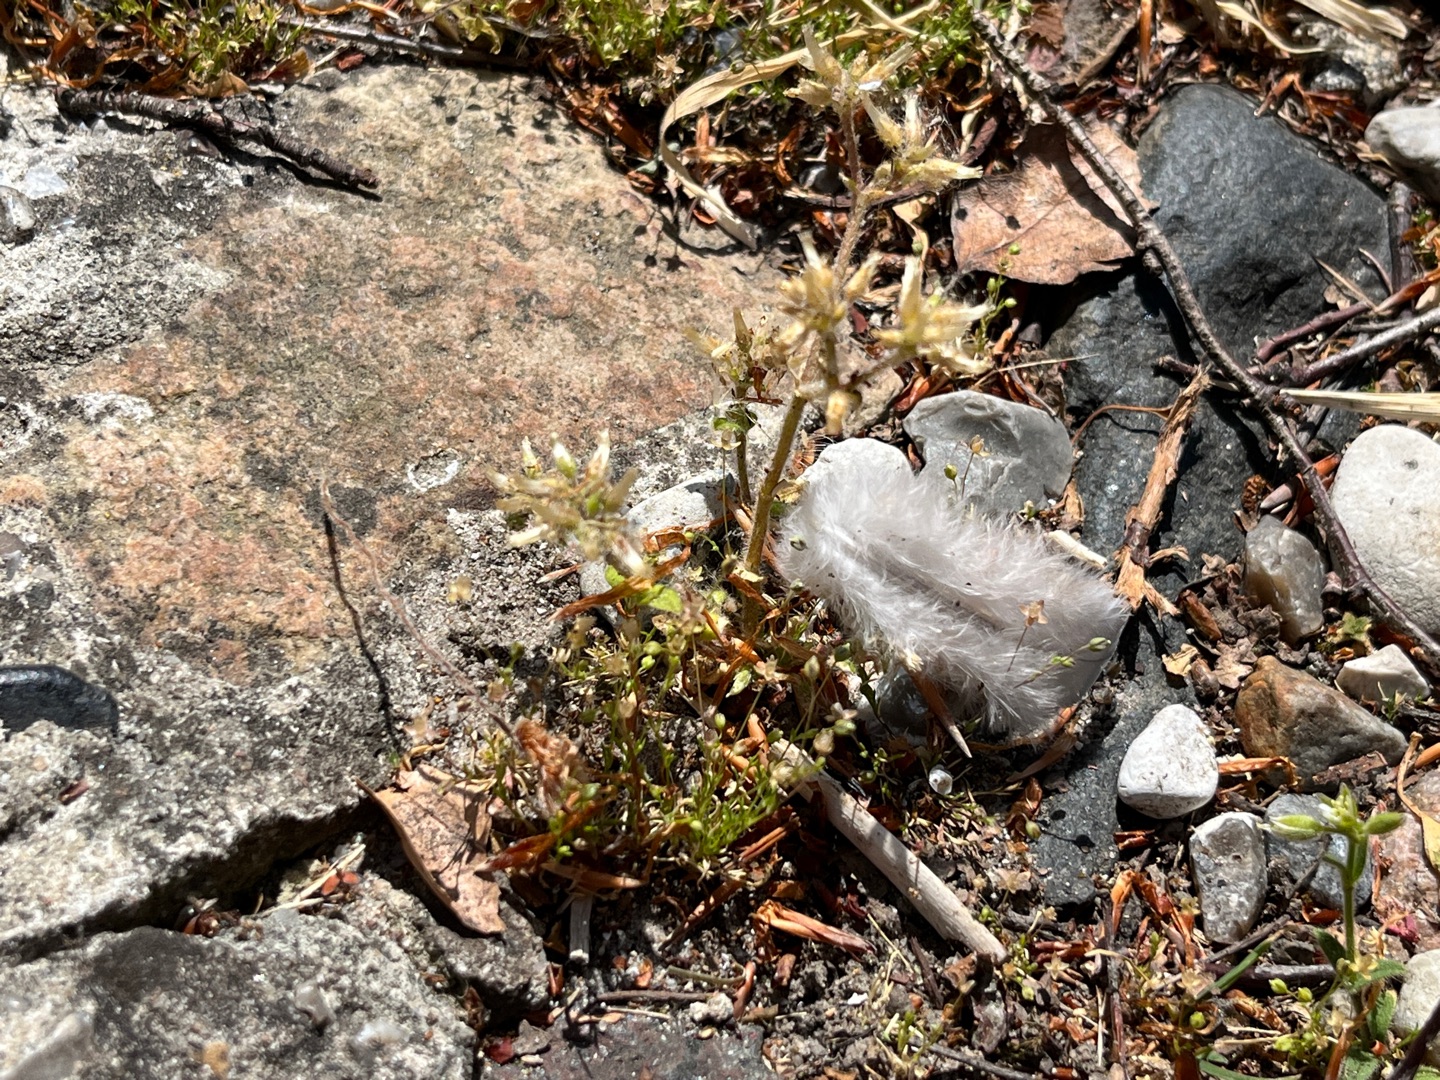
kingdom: Plantae
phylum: Tracheophyta
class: Magnoliopsida
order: Caryophyllales
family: Caryophyllaceae
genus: Cerastium
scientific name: Cerastium glomeratum
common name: Opret hønsetarm
